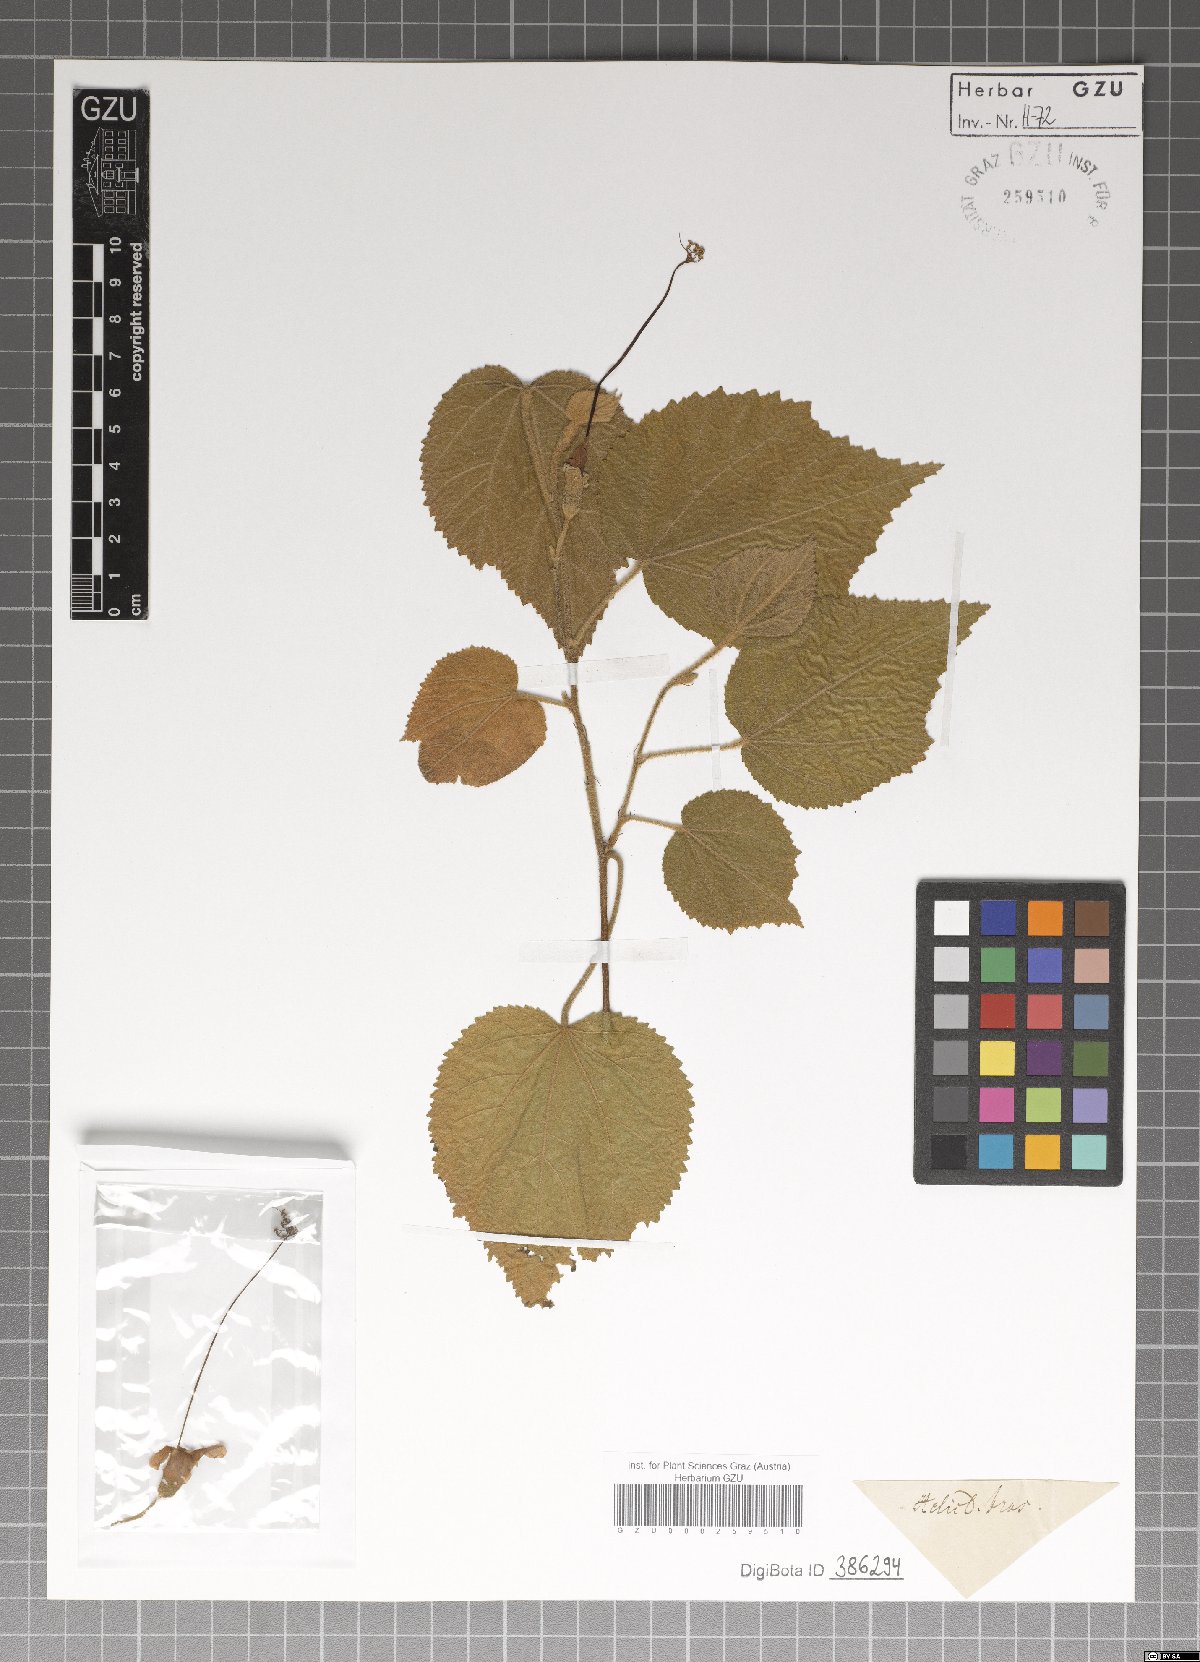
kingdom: Plantae
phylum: Tracheophyta
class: Magnoliopsida
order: Malvales
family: Malvaceae
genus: Helicteres
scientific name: Helicteres
